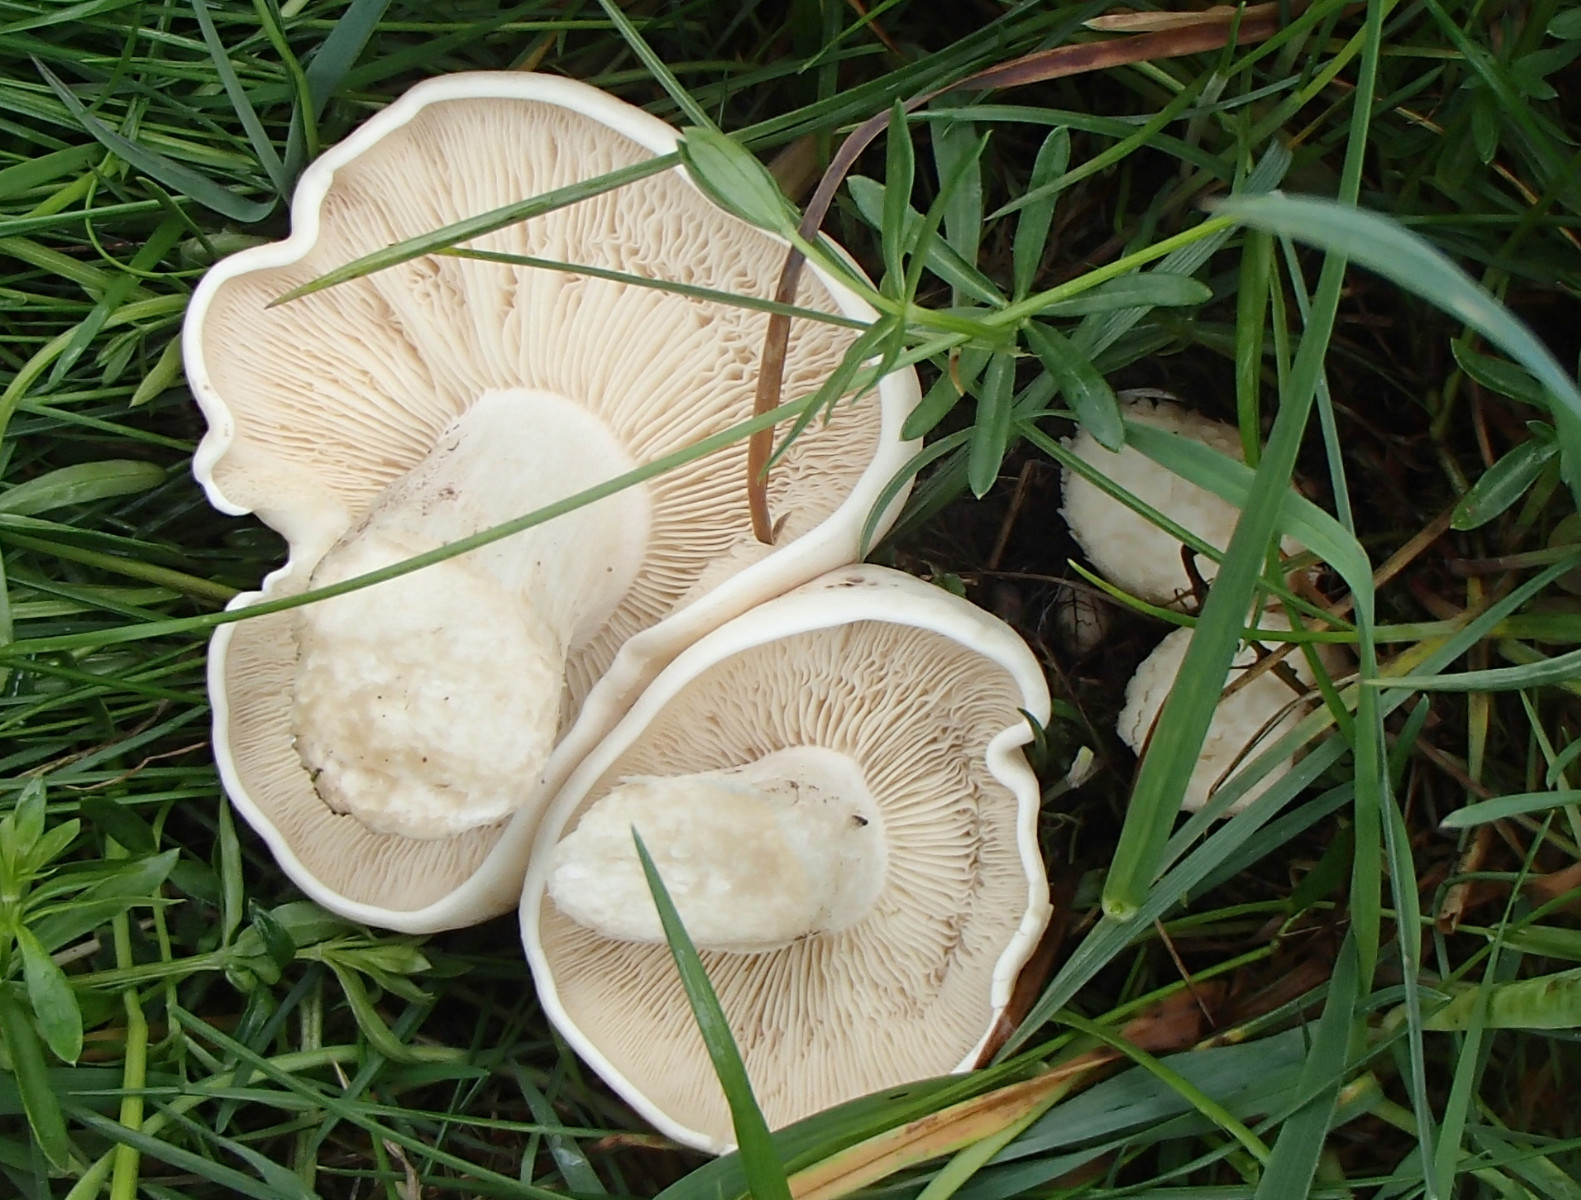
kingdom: Fungi
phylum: Basidiomycota
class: Agaricomycetes
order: Agaricales
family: Lyophyllaceae
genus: Calocybe
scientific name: Calocybe gambosa
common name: vårmusseron
